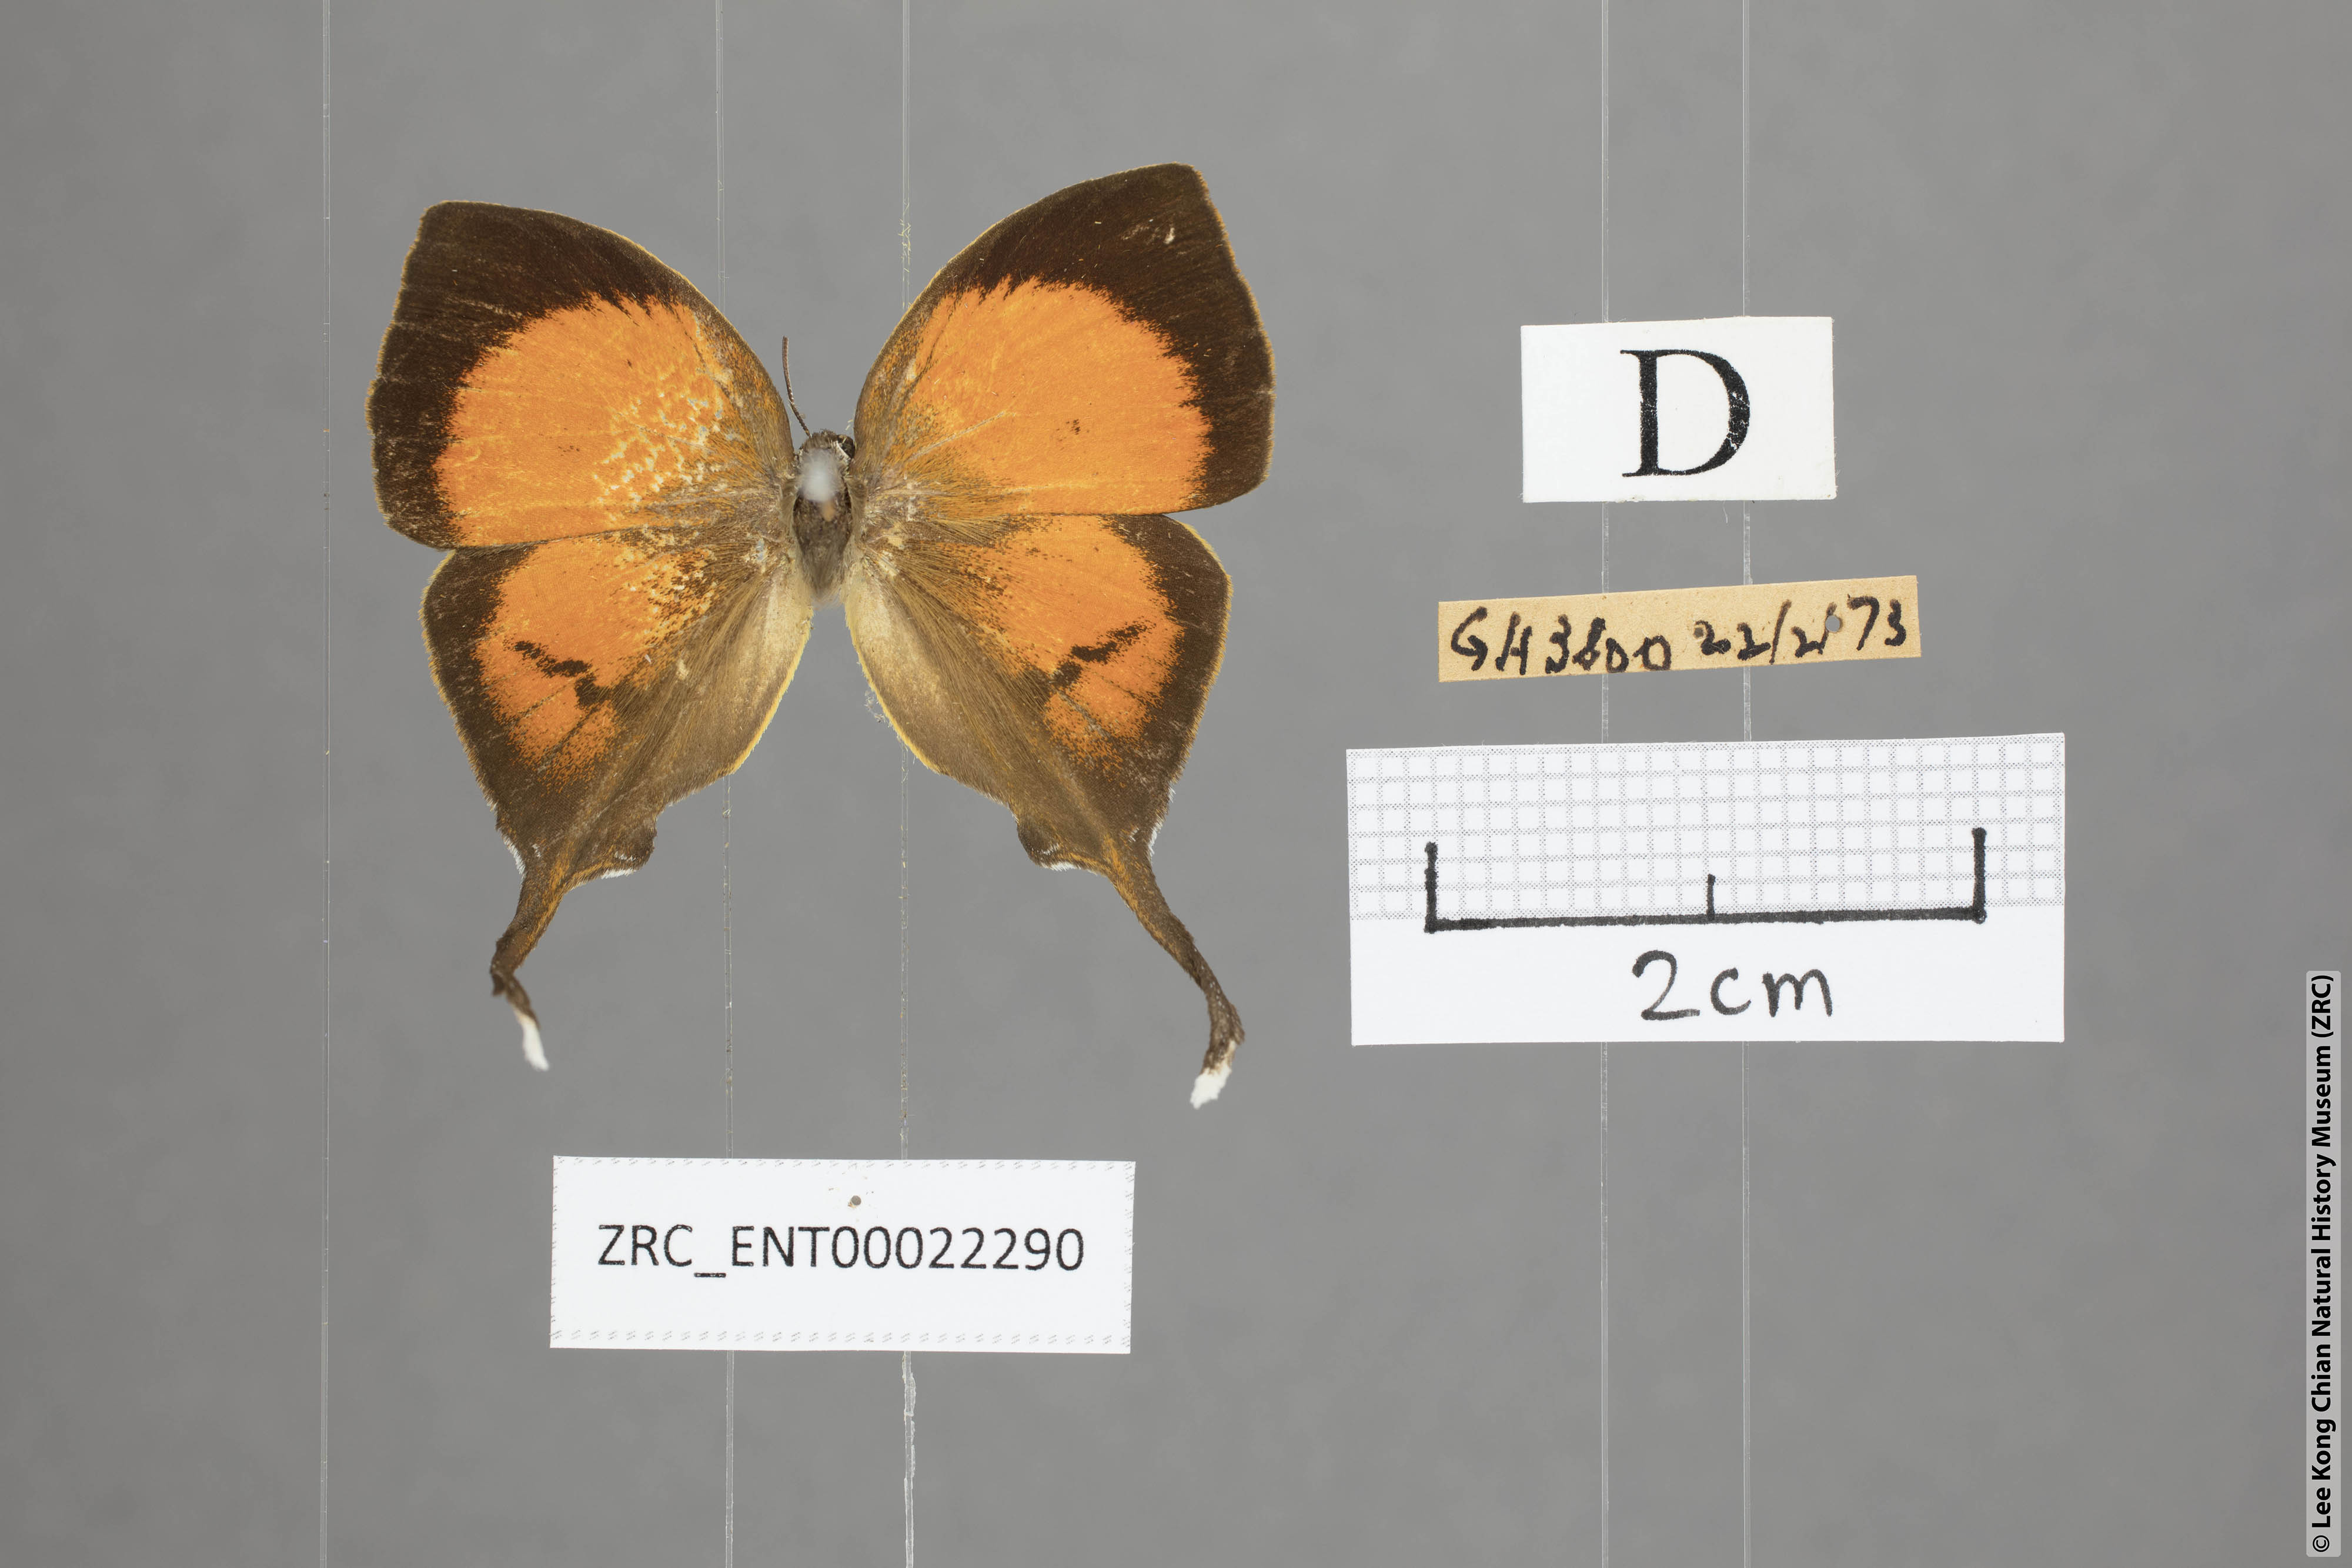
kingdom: Animalia
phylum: Arthropoda
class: Insecta
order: Lepidoptera
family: Lycaenidae
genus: Yasoda
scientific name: Yasoda pita
